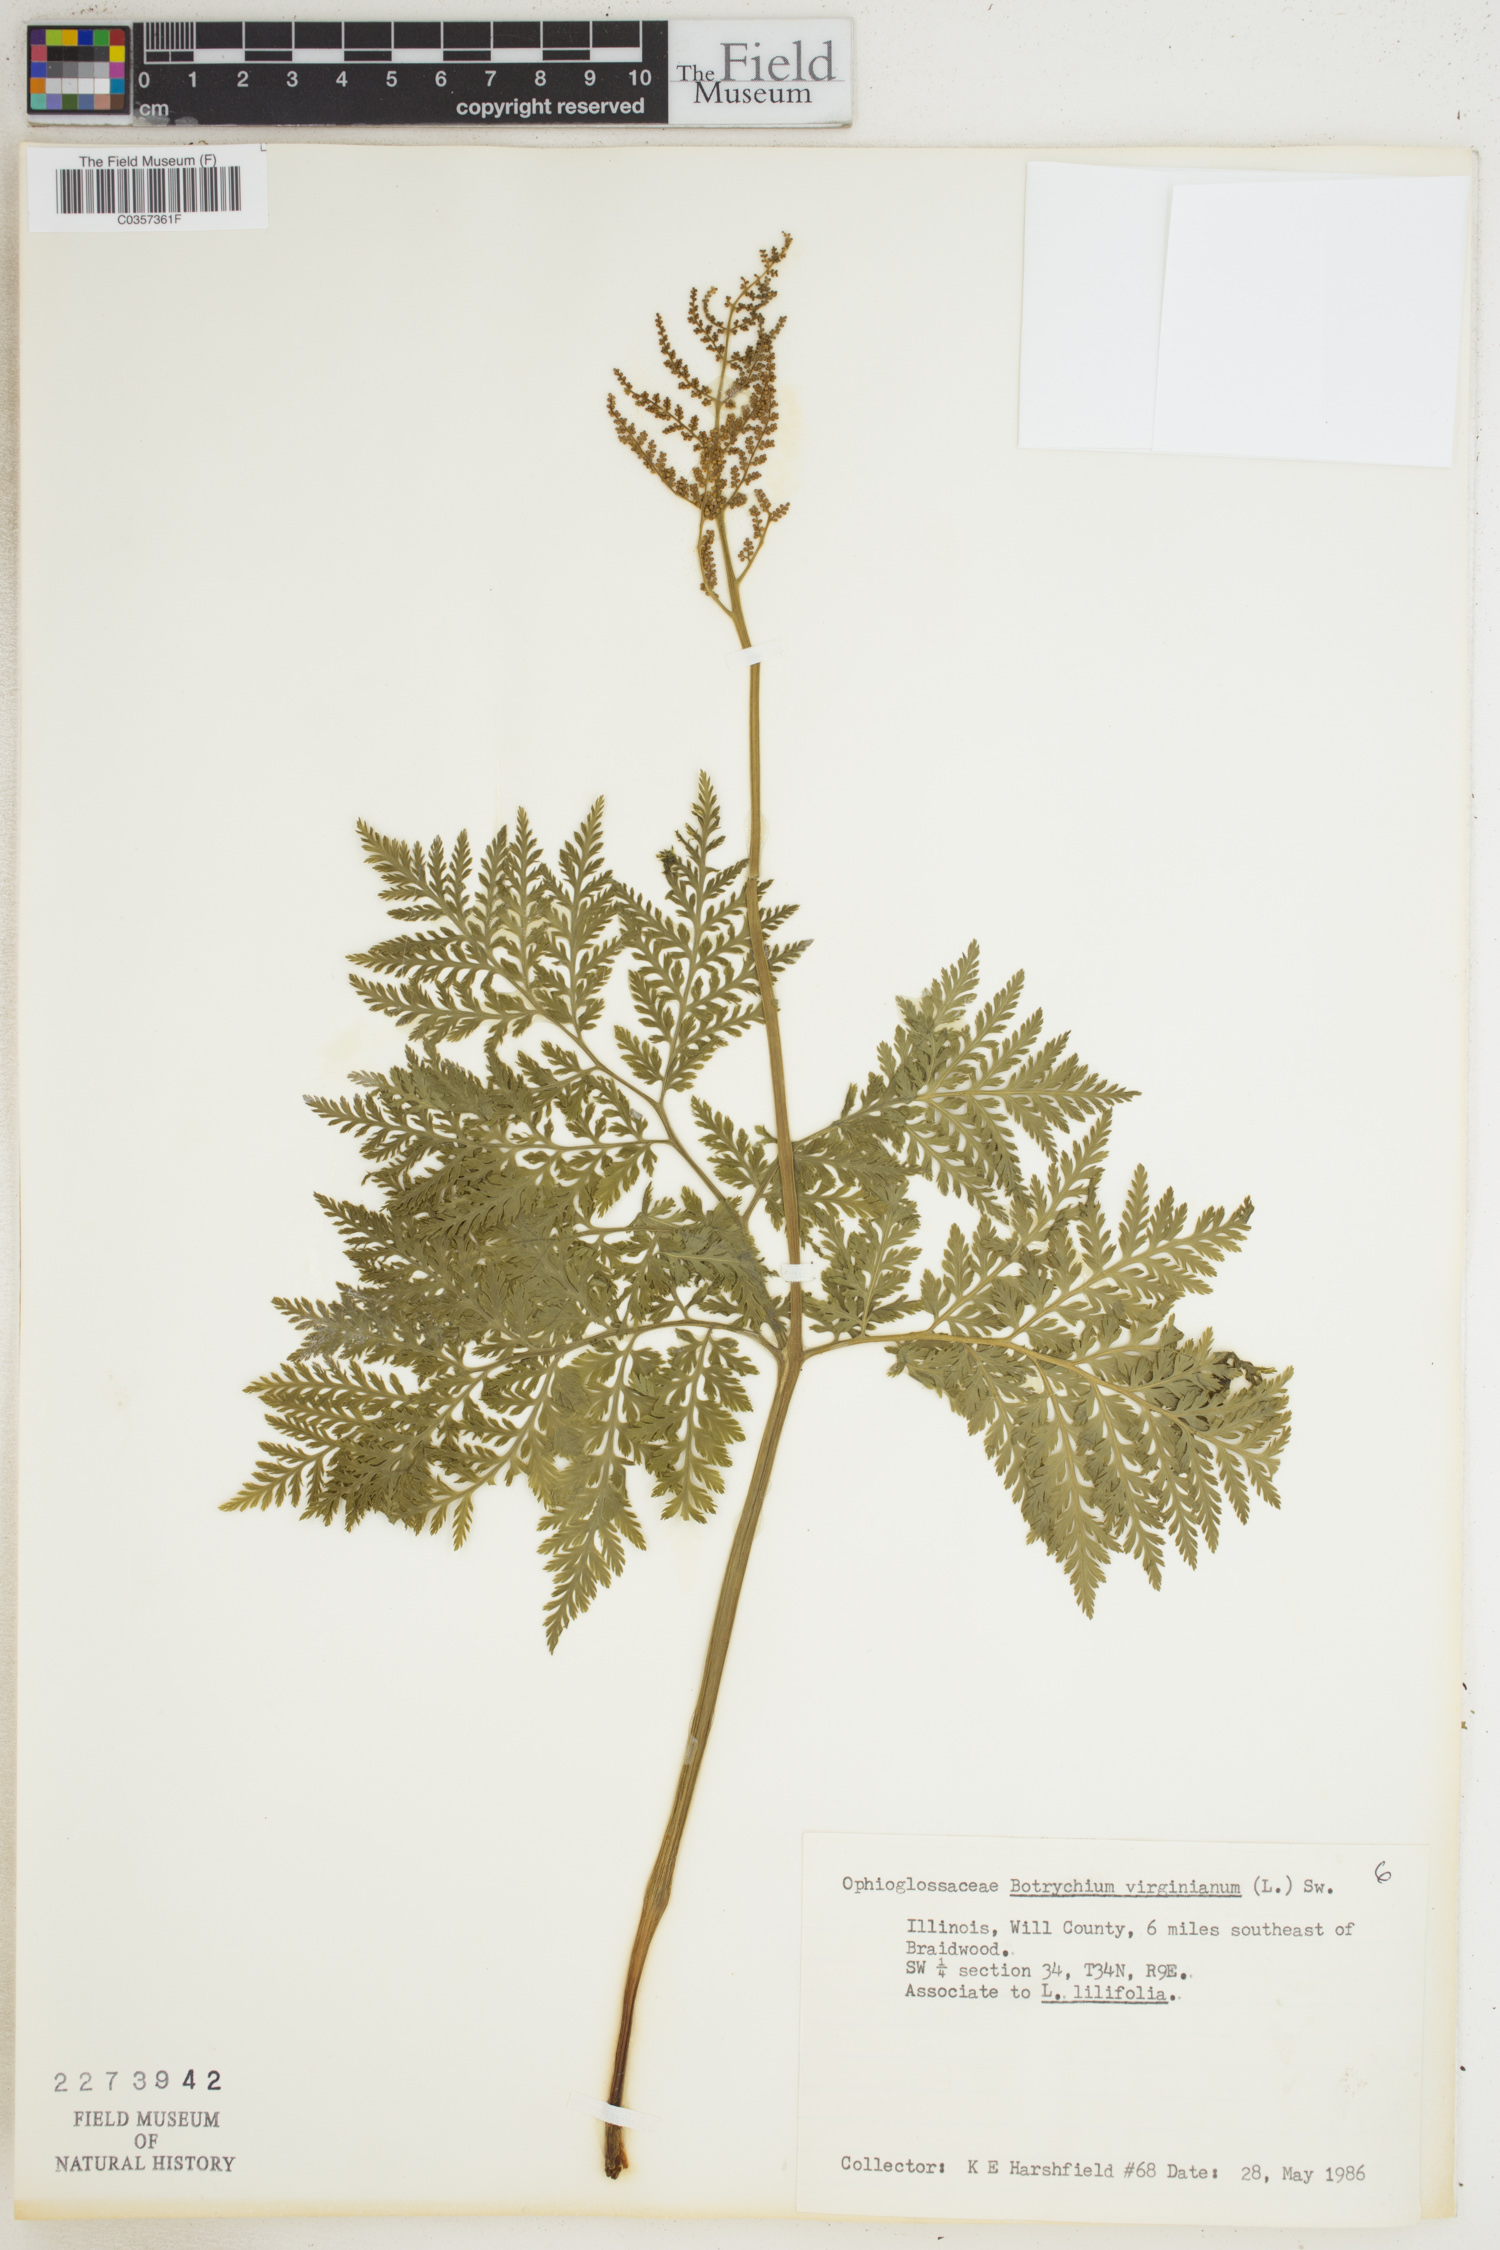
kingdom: Plantae
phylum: Tracheophyta
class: Polypodiopsida
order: Ophioglossales
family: Ophioglossaceae
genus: Botrypus
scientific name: Botrypus virginianus
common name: Common grapefern
